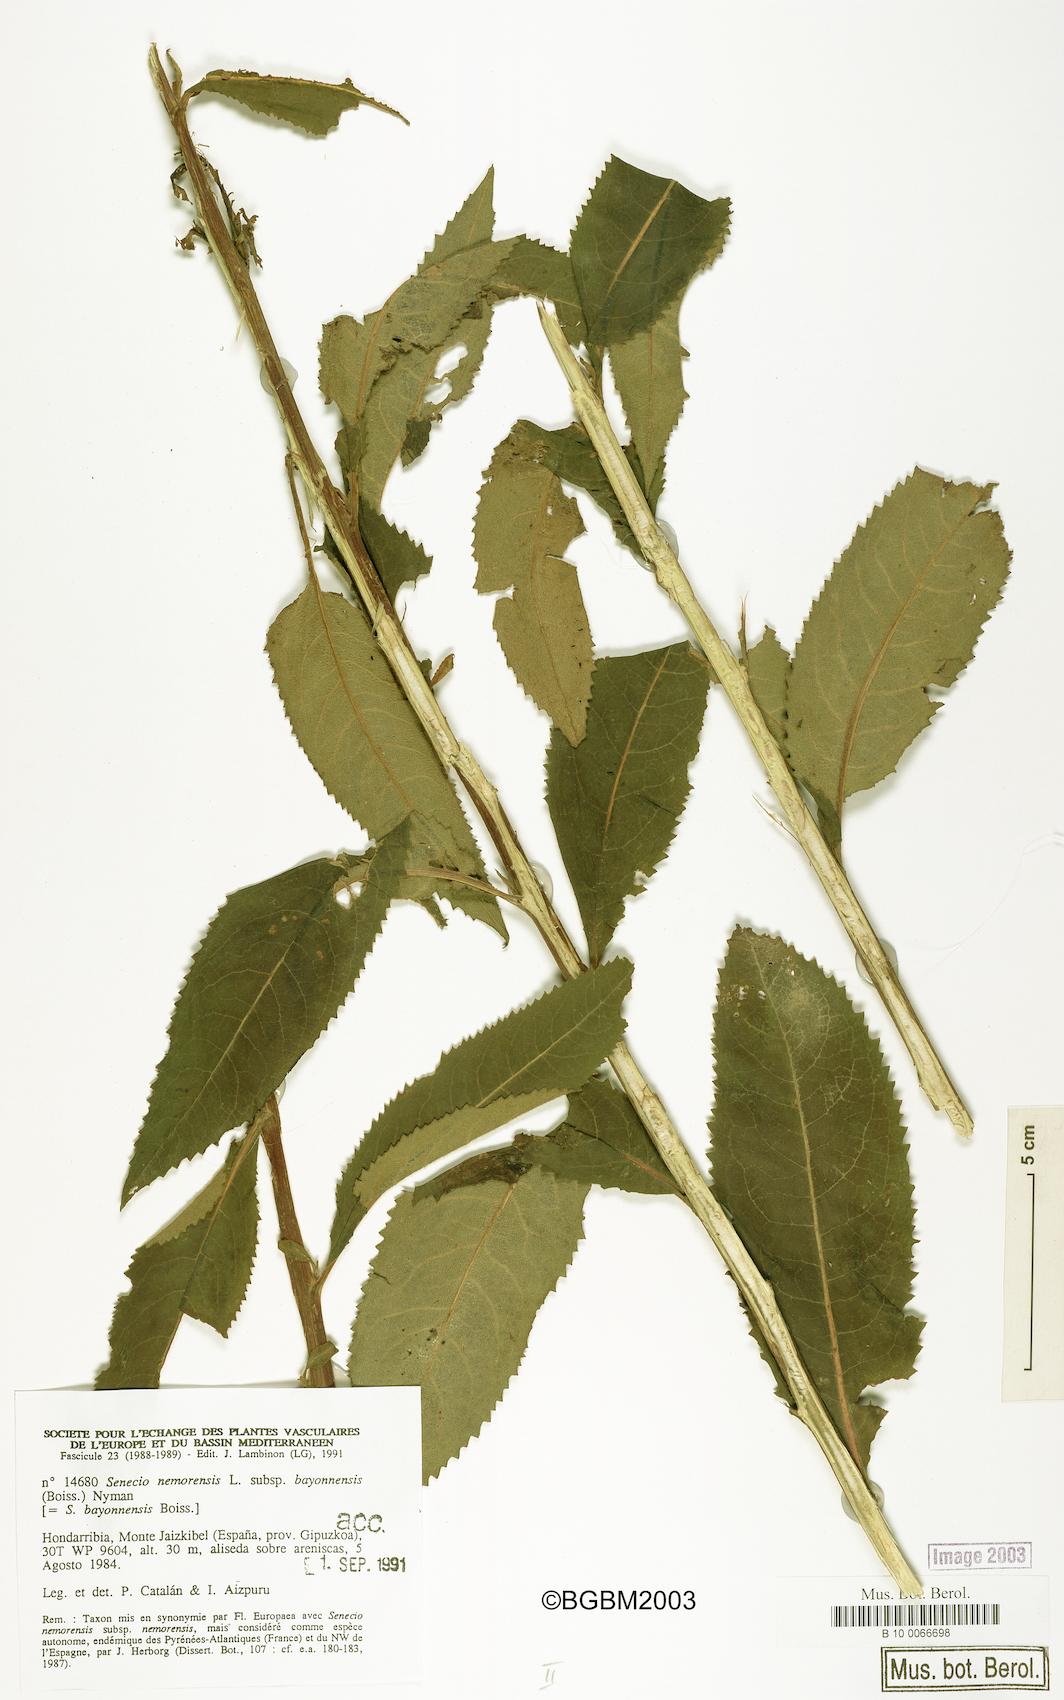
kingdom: Plantae
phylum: Tracheophyta
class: Magnoliopsida
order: Asterales
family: Asteraceae
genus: Senecio
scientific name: Senecio bayonnensis
